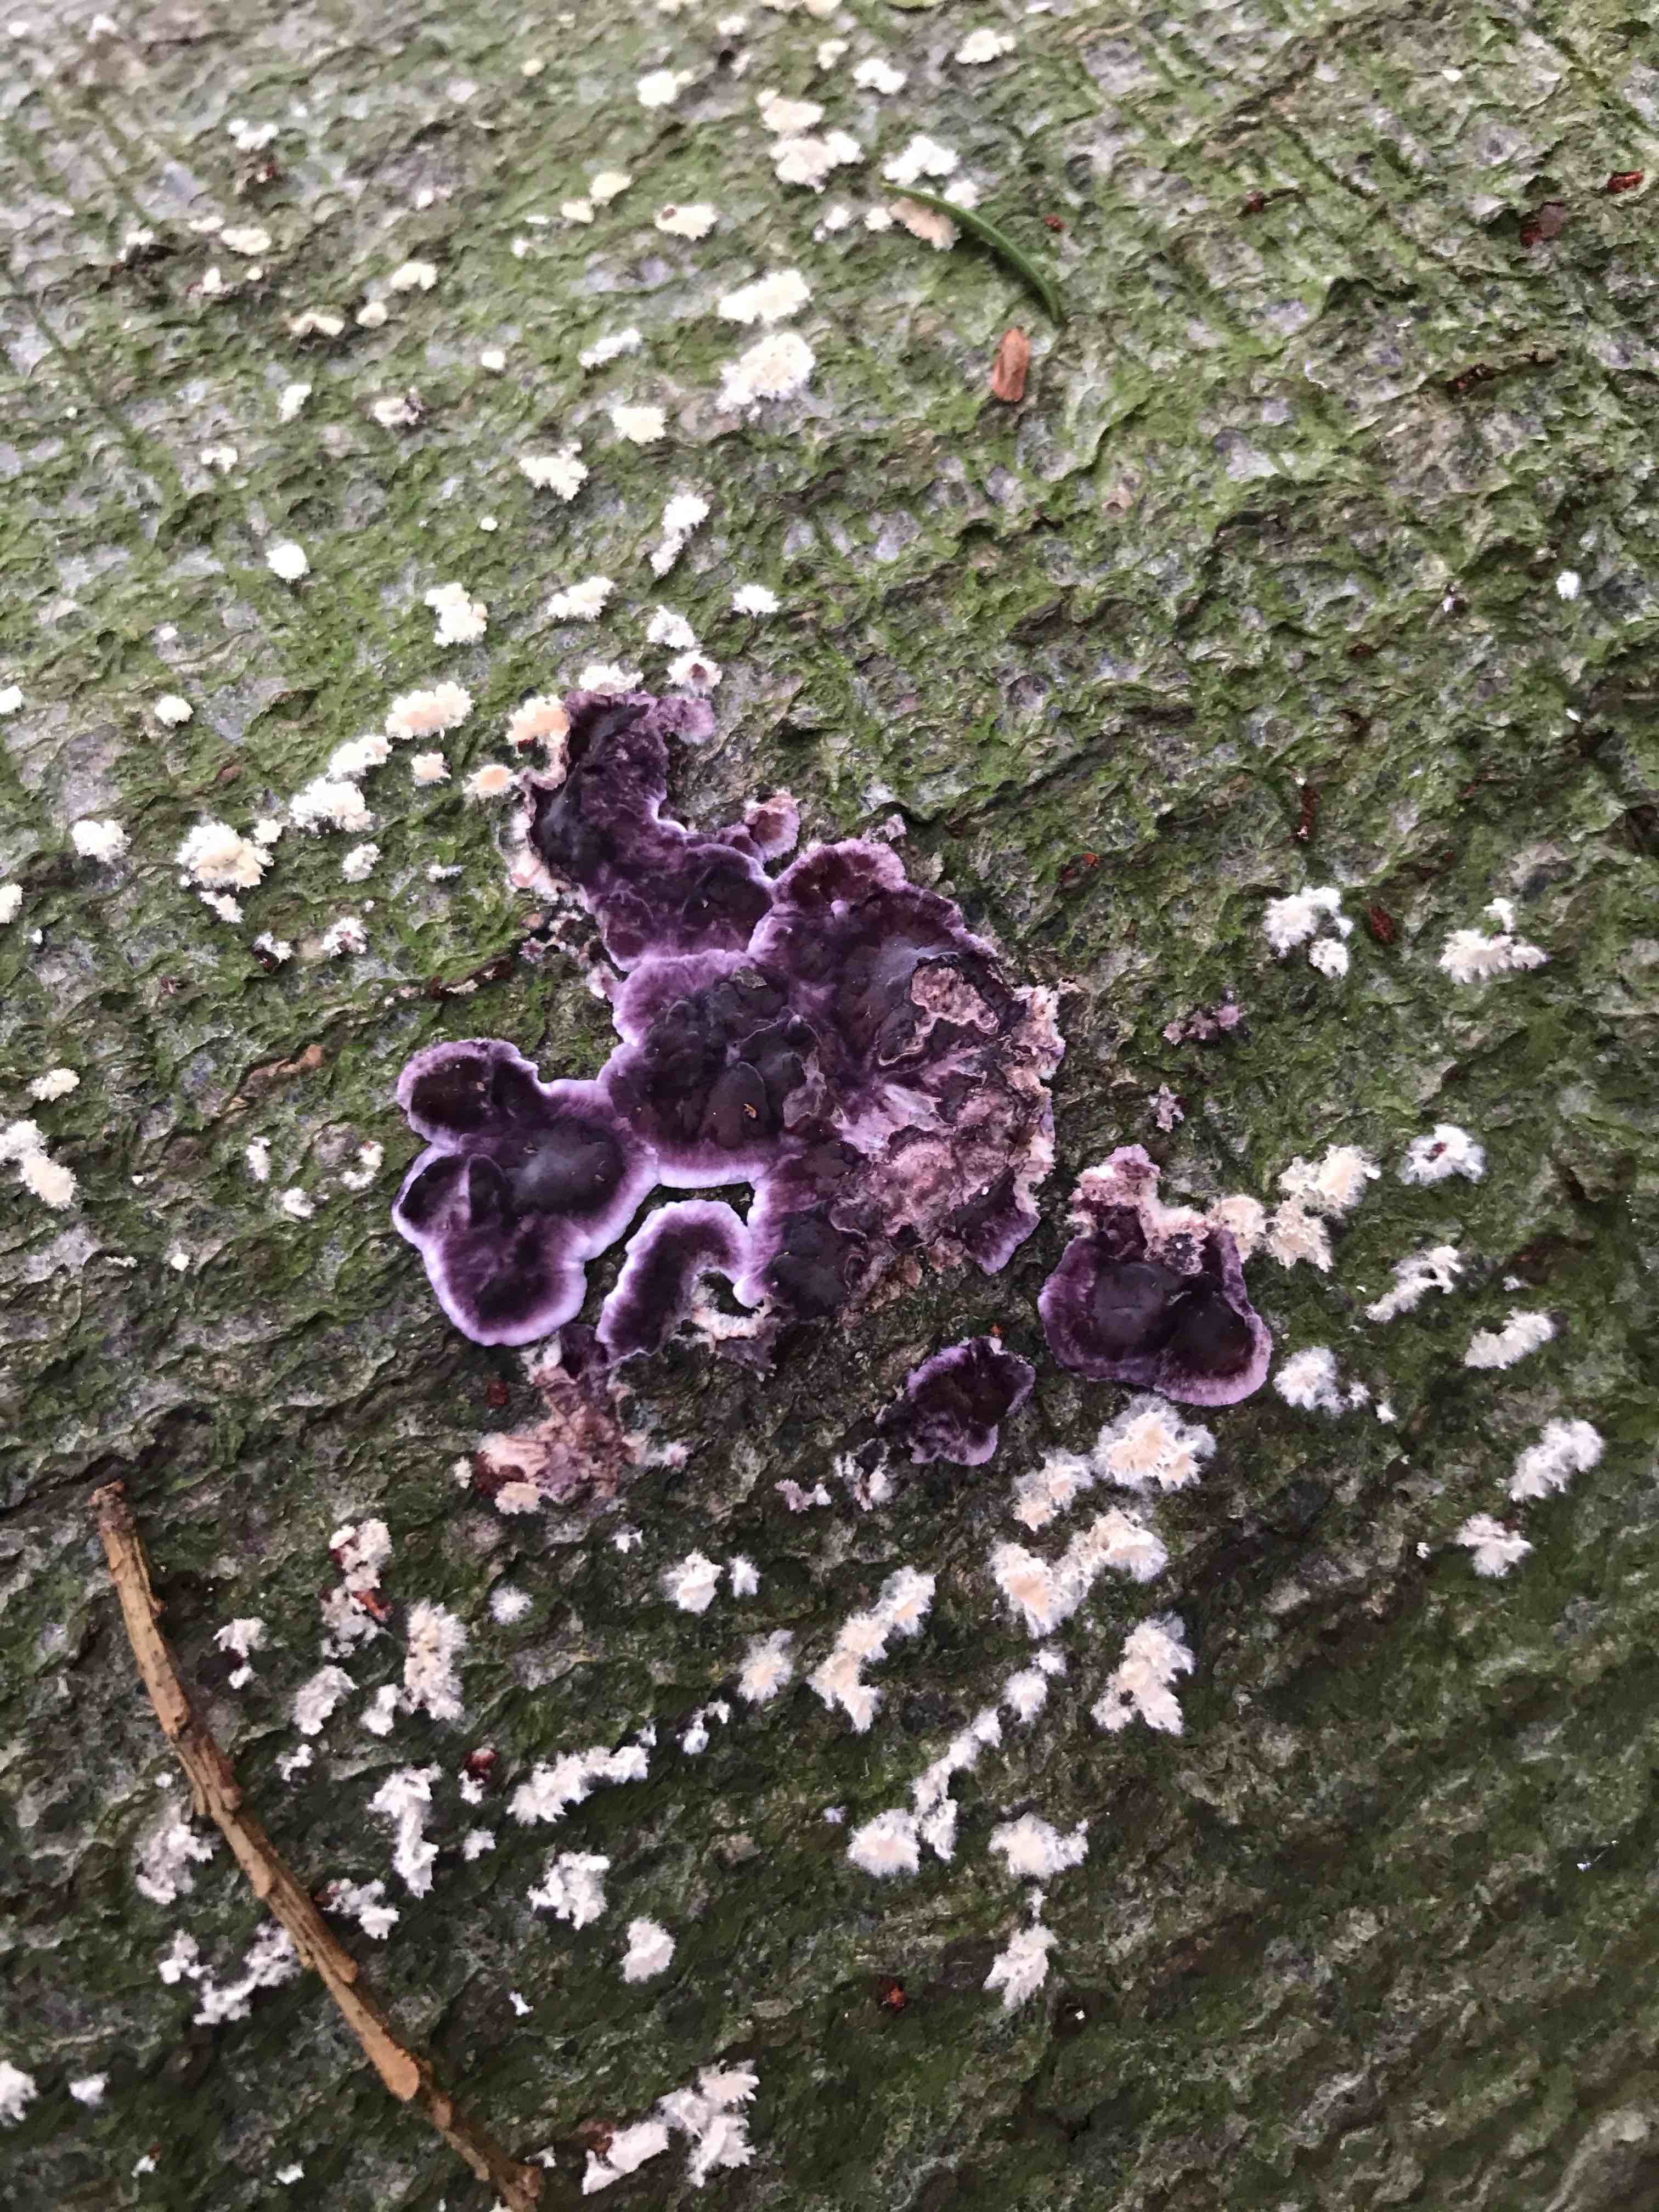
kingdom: Fungi
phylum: Basidiomycota
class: Agaricomycetes
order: Agaricales
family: Cyphellaceae
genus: Chondrostereum
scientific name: Chondrostereum purpureum
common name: purpurlædersvamp
